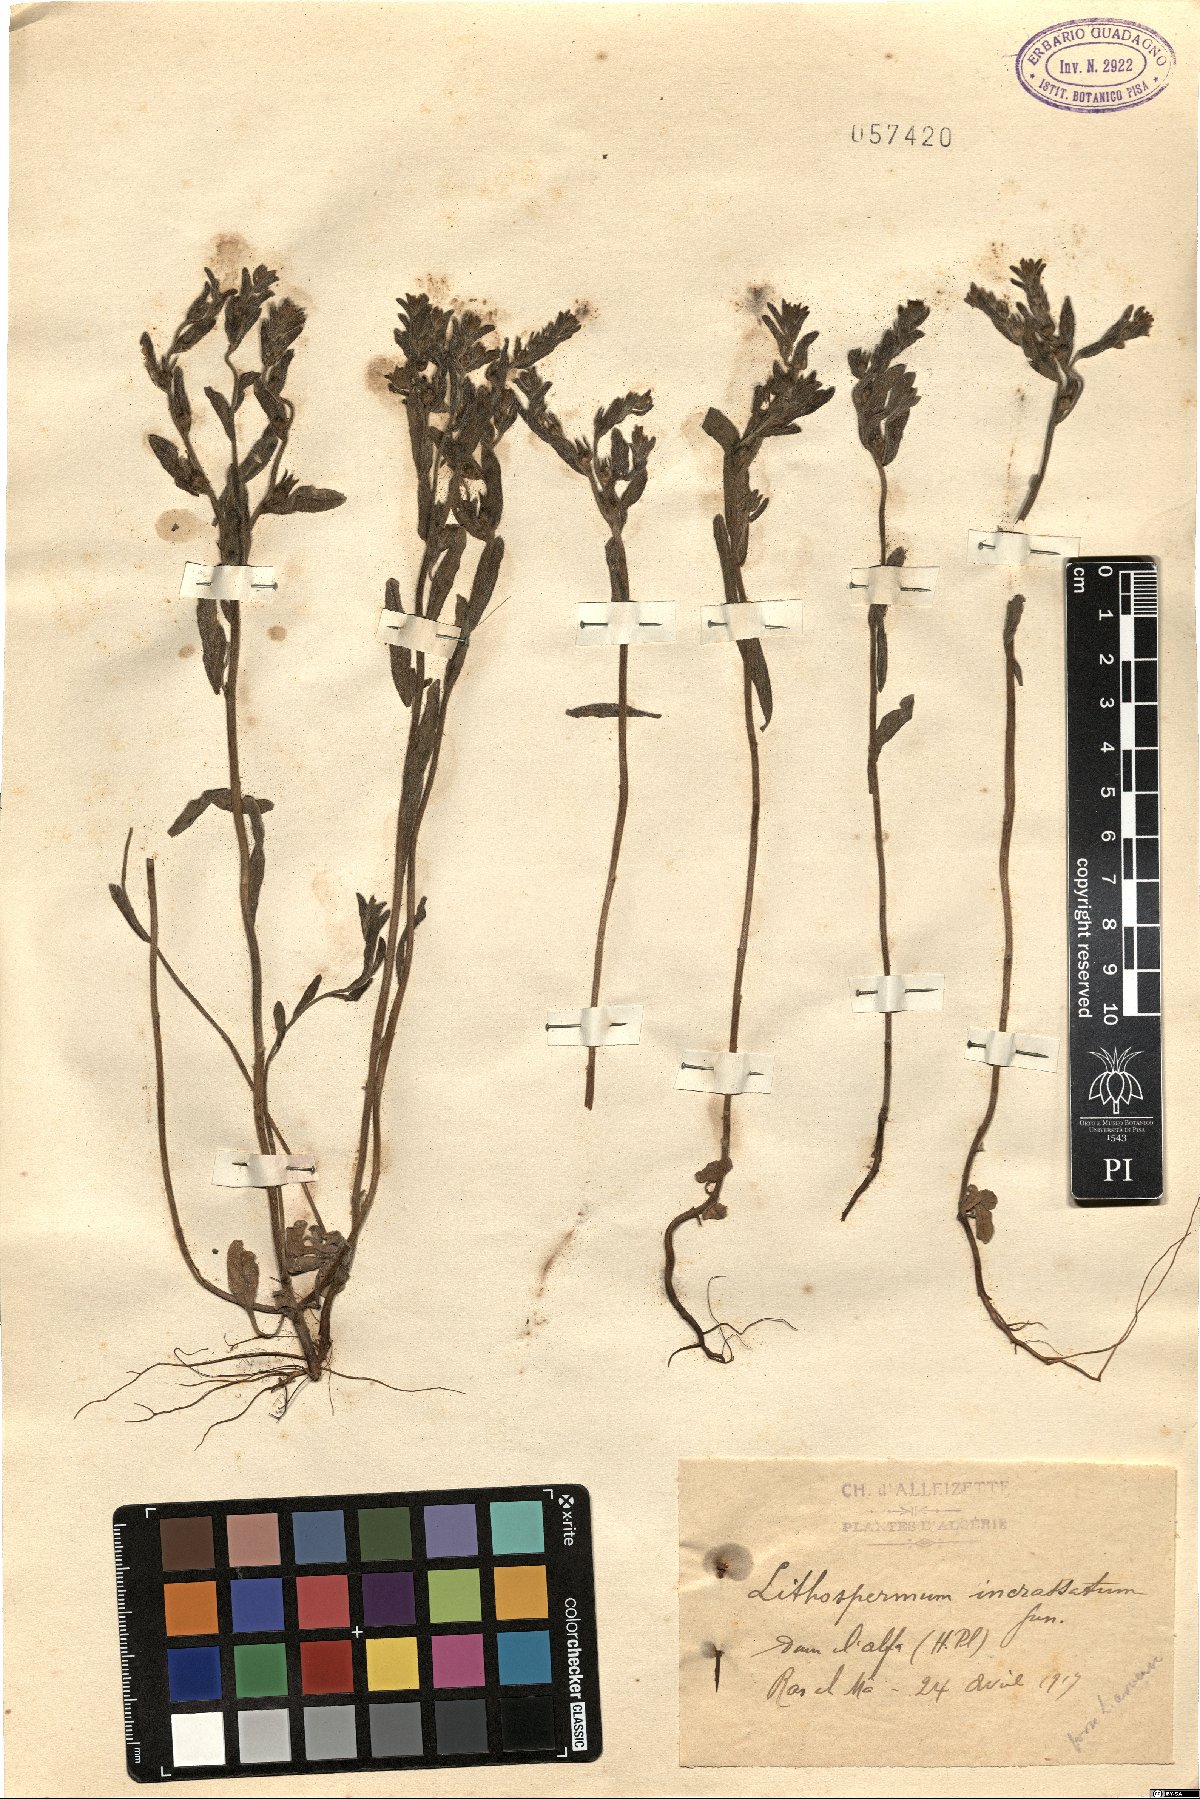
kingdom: Plantae
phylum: Tracheophyta
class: Magnoliopsida
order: Boraginales
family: Boraginaceae
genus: Buglossoides
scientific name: Buglossoides incrassata
